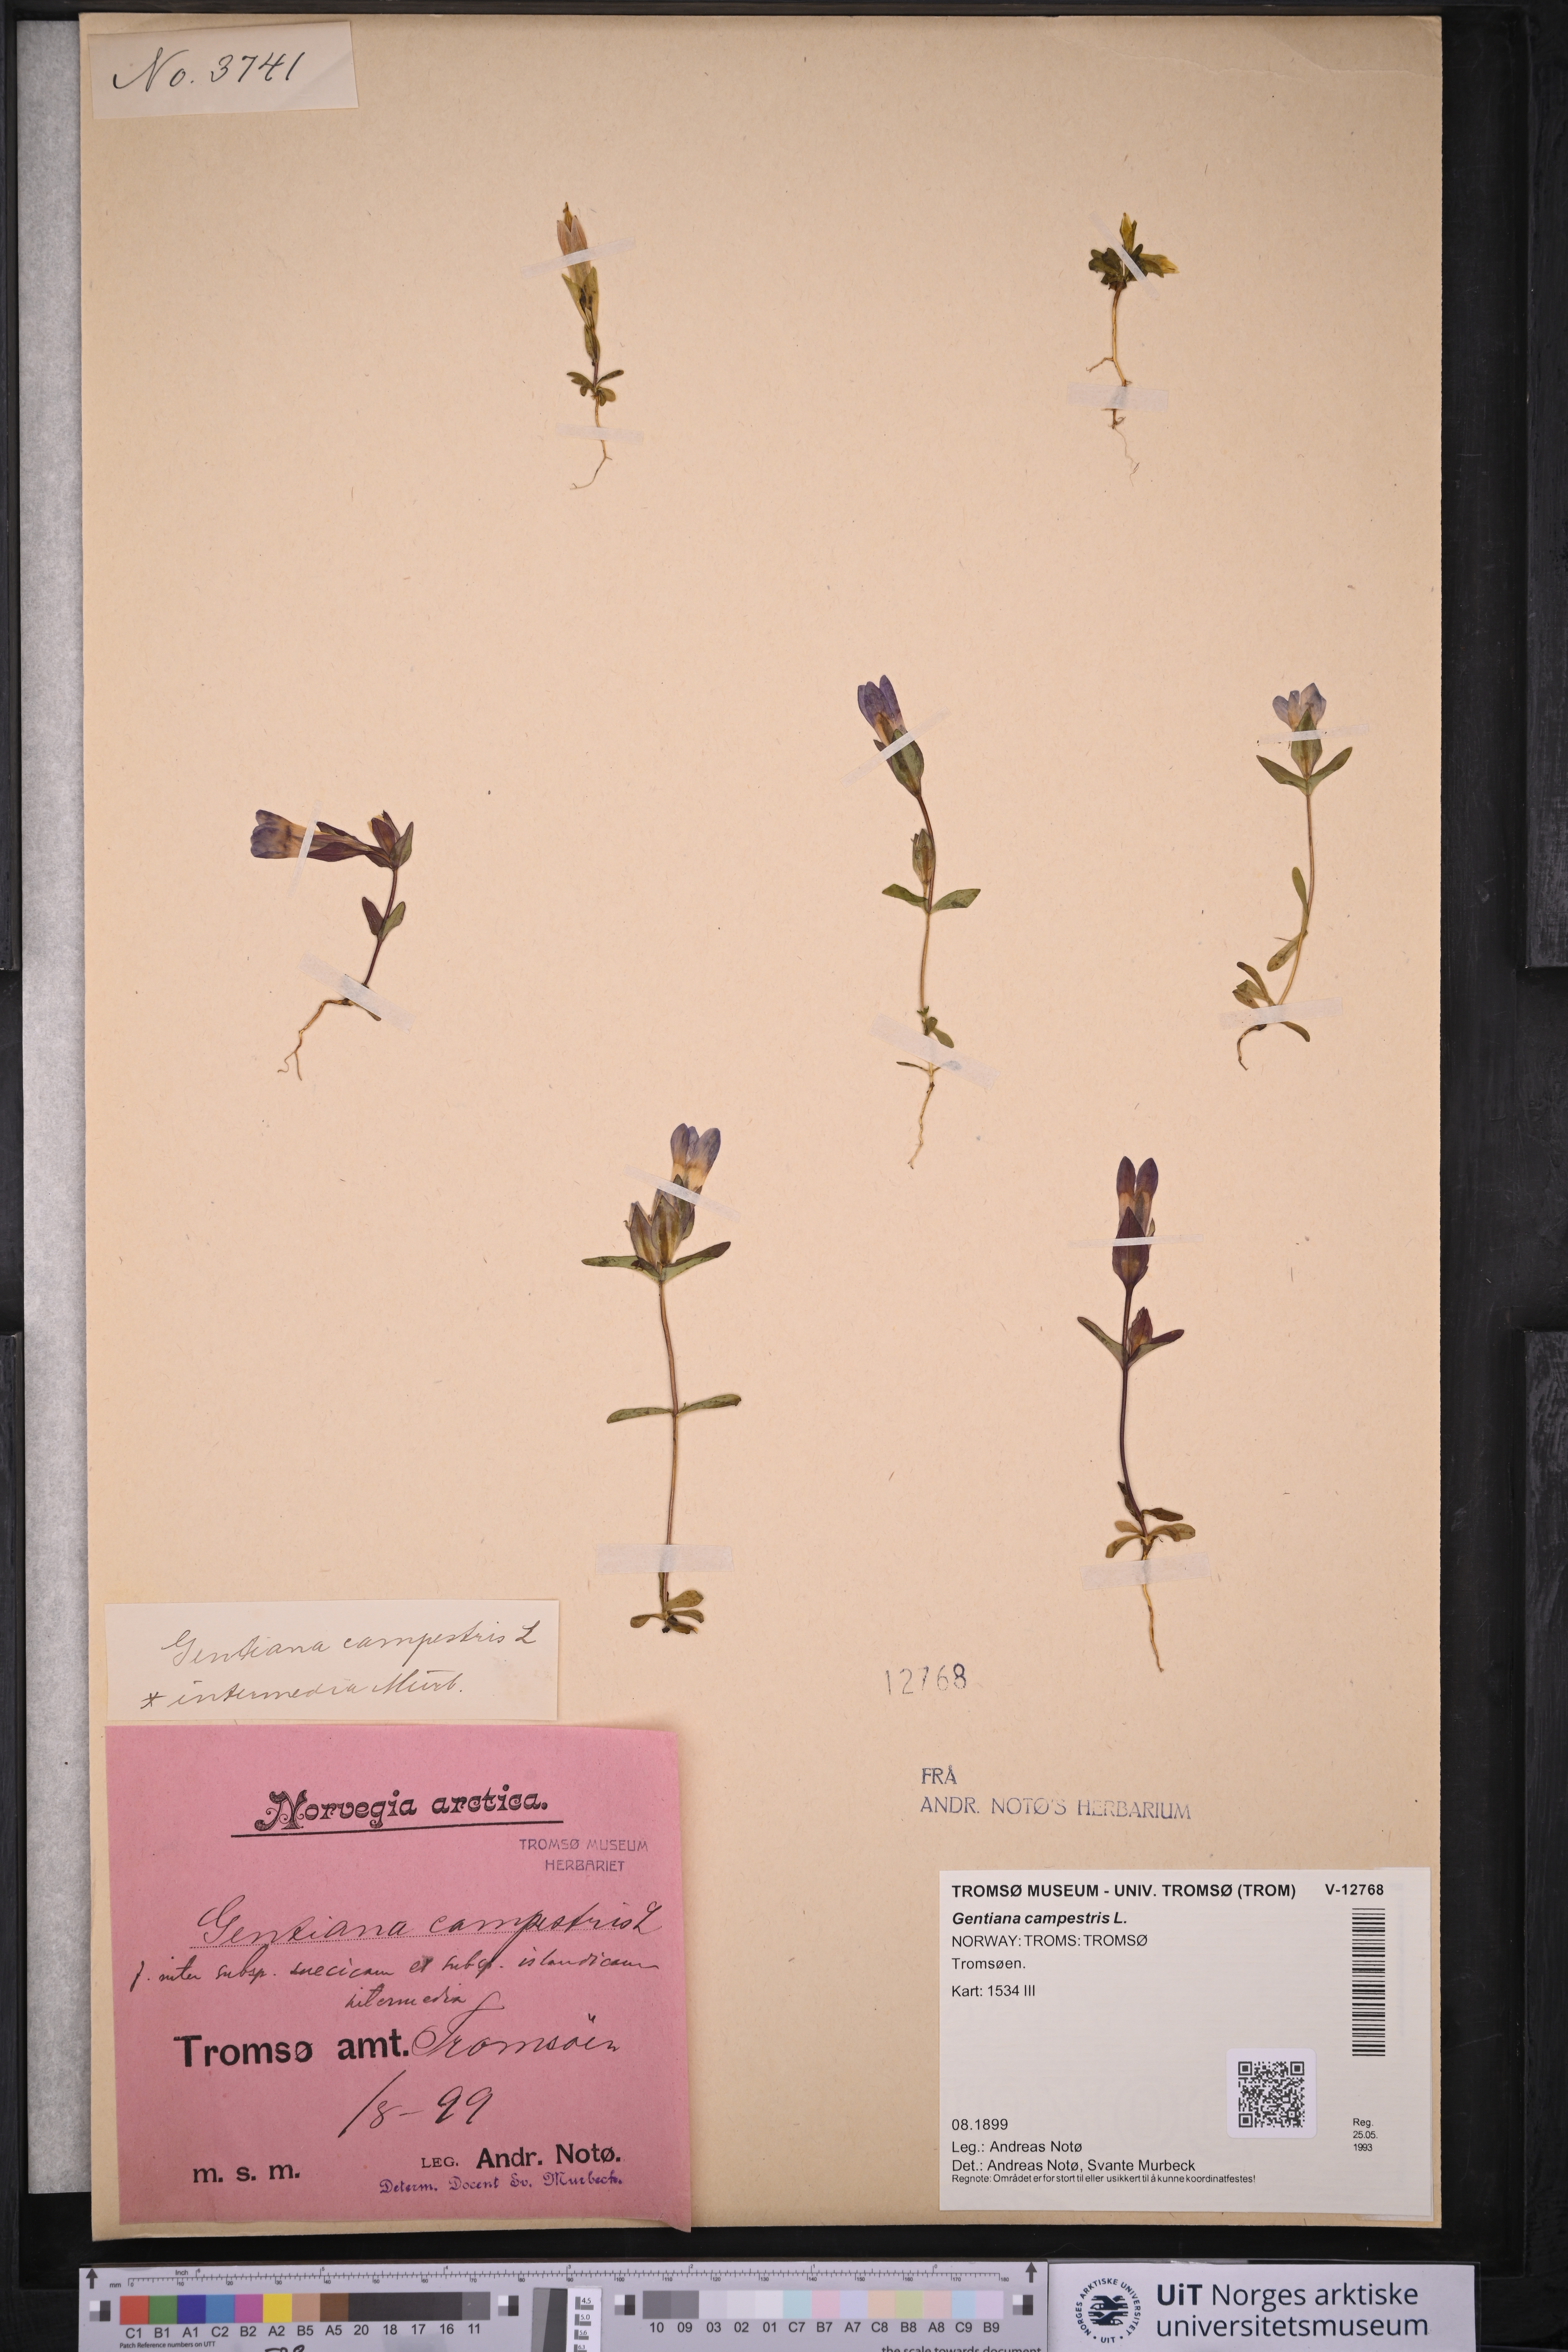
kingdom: Plantae
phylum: Tracheophyta
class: Magnoliopsida
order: Gentianales
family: Gentianaceae
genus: Gentianella
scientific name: Gentianella campestris
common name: Field gentian
